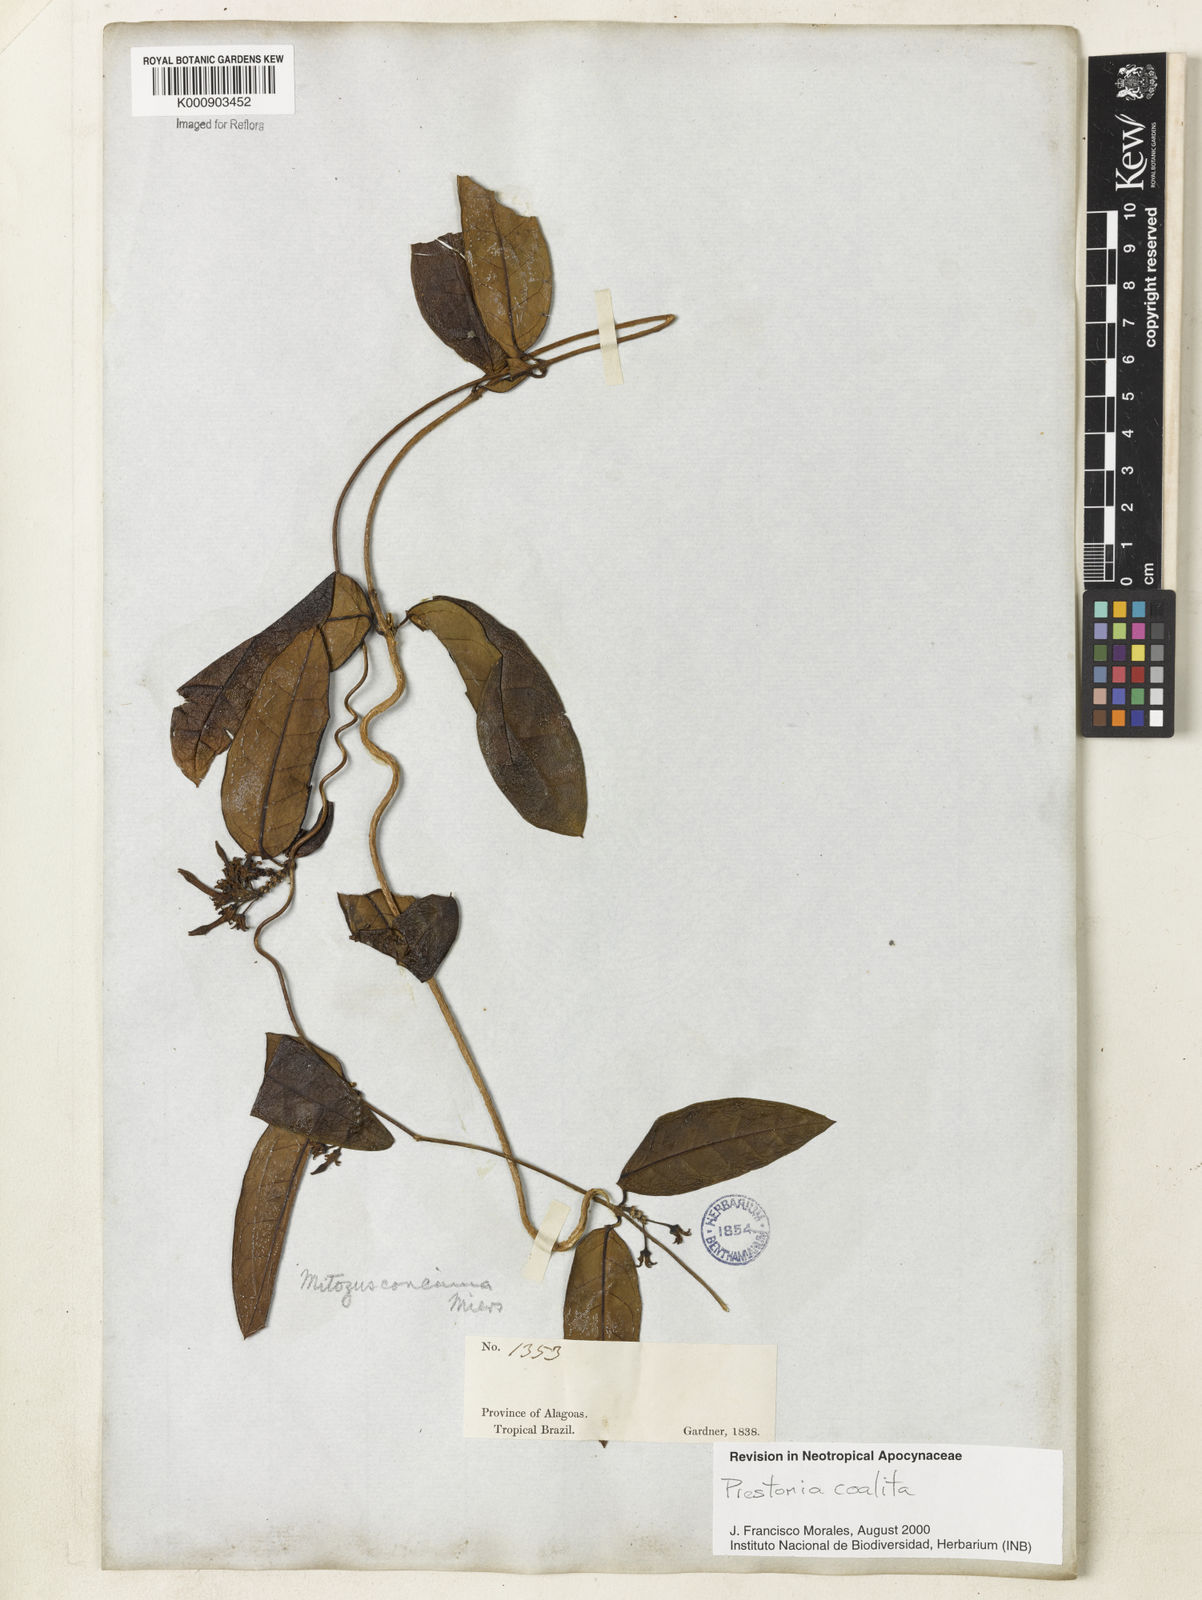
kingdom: Plantae
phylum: Tracheophyta
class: Magnoliopsida
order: Gentianales
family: Apocynaceae
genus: Prestonia
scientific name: Prestonia coalita
